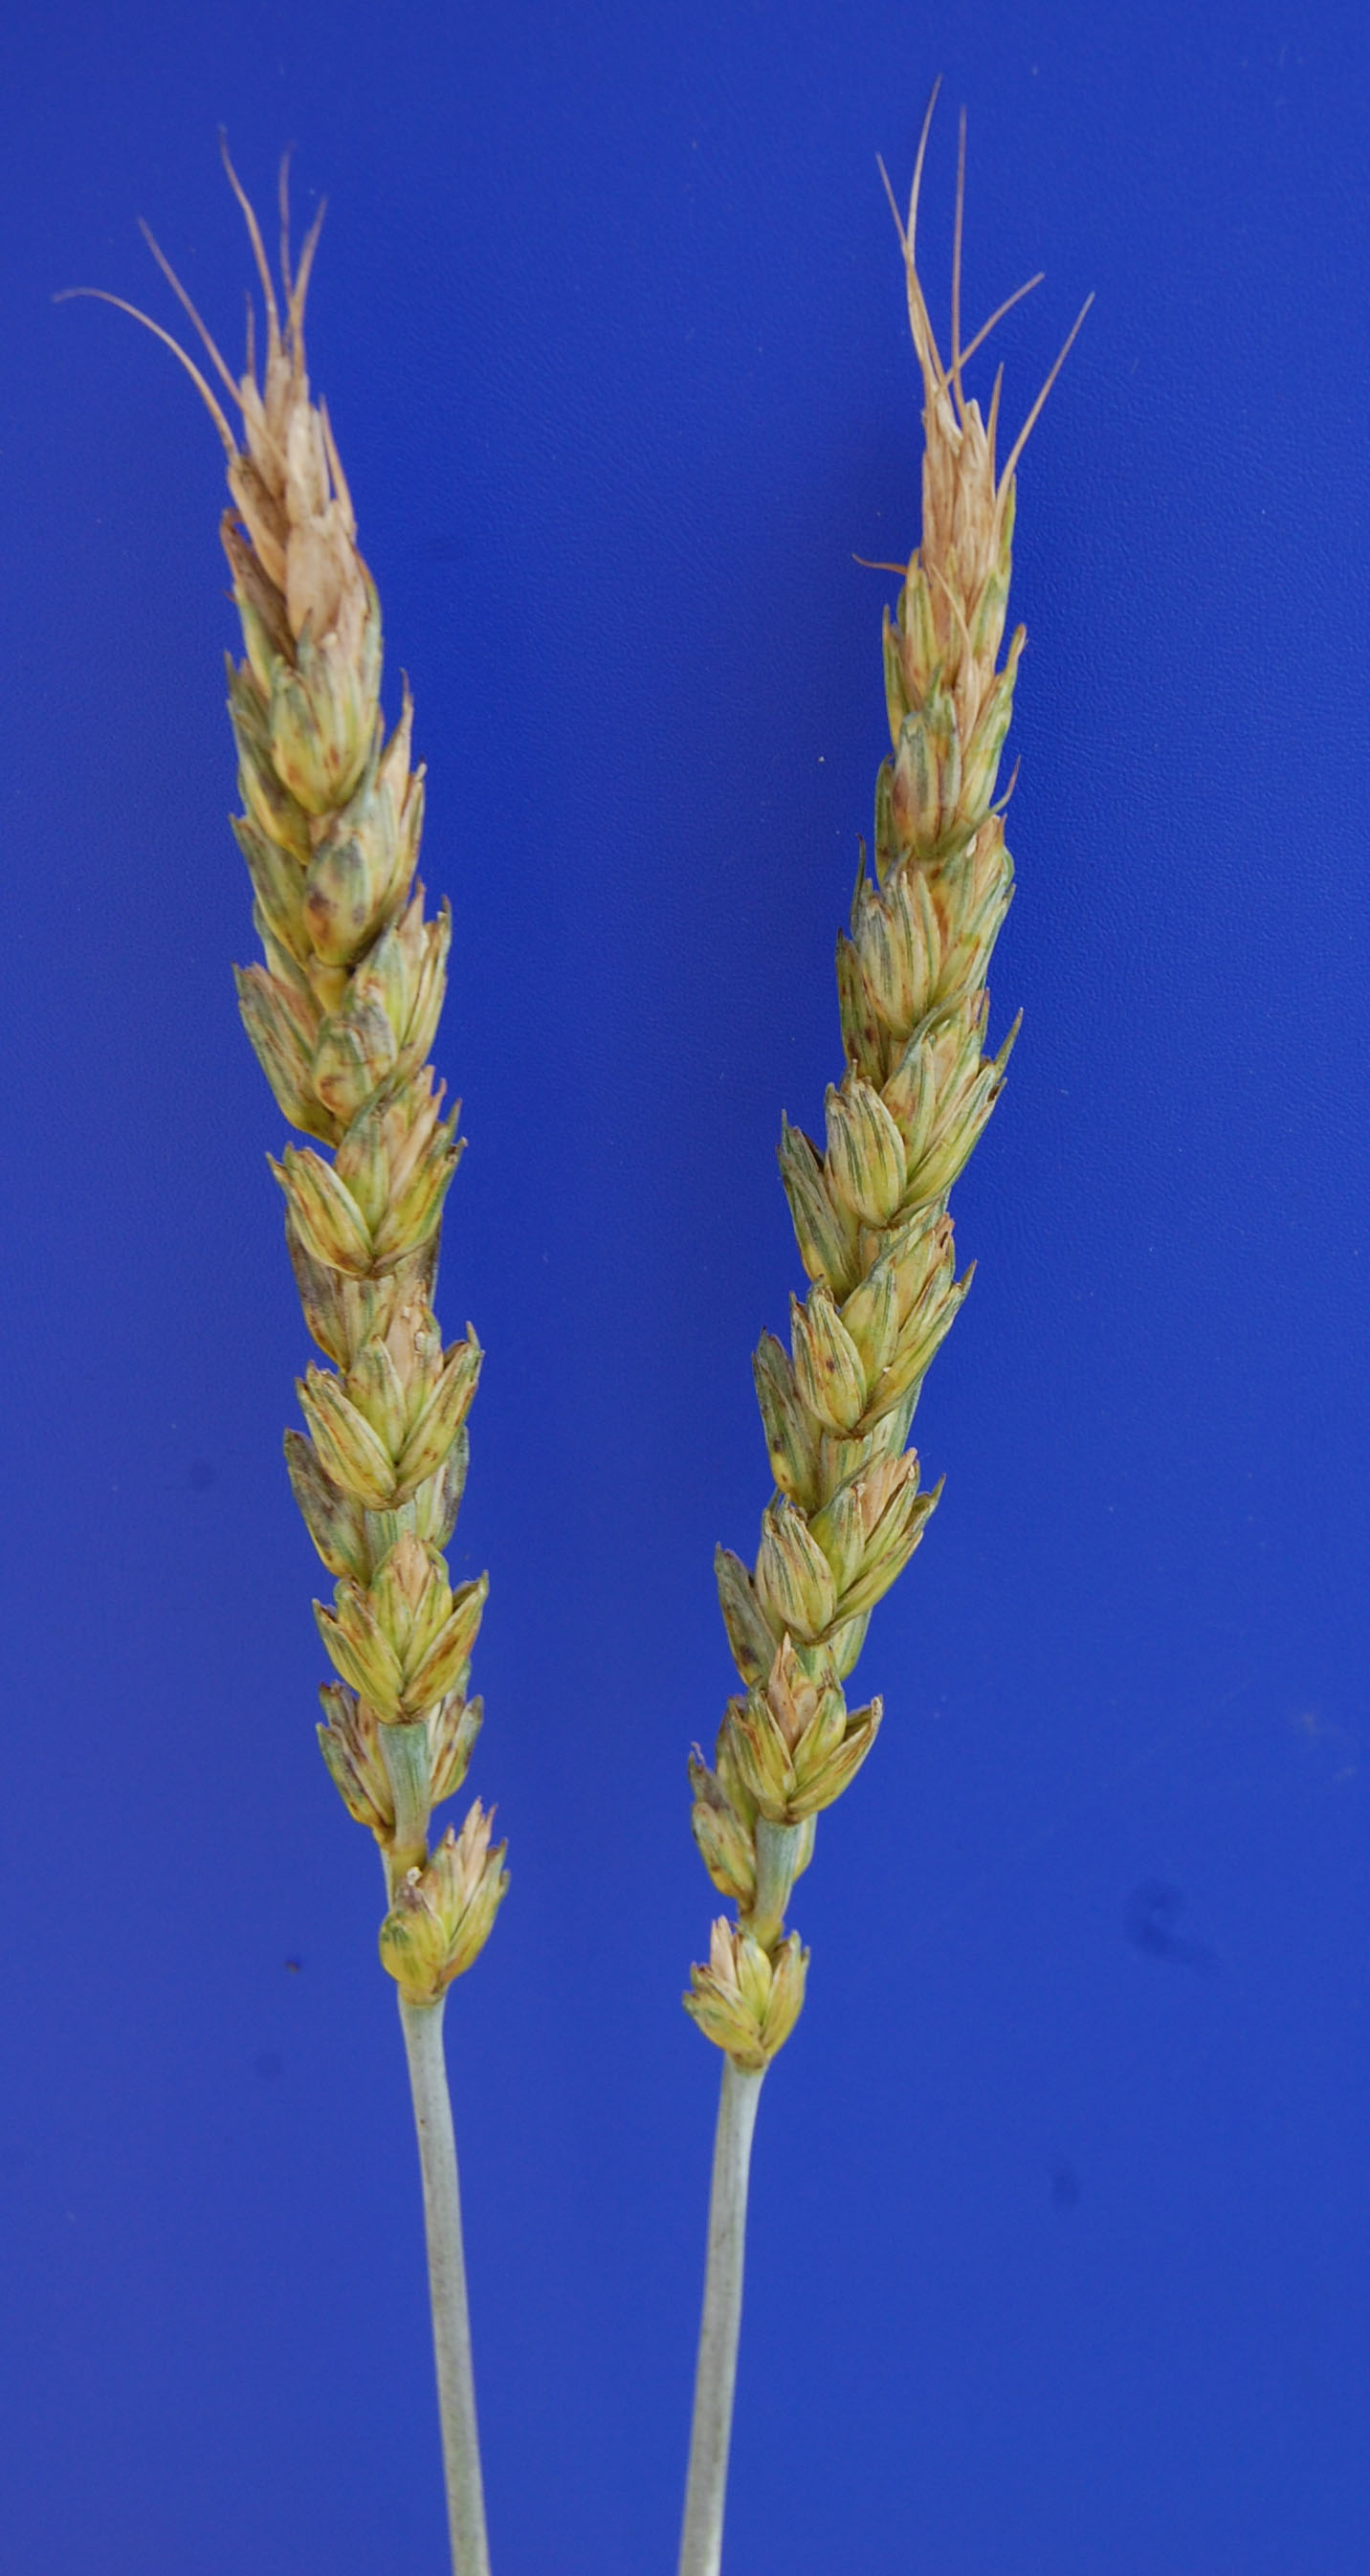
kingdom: Plantae
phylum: Tracheophyta
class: Liliopsida
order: Poales
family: Poaceae
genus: Triticum
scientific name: Triticum aestivum
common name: Common wheat
